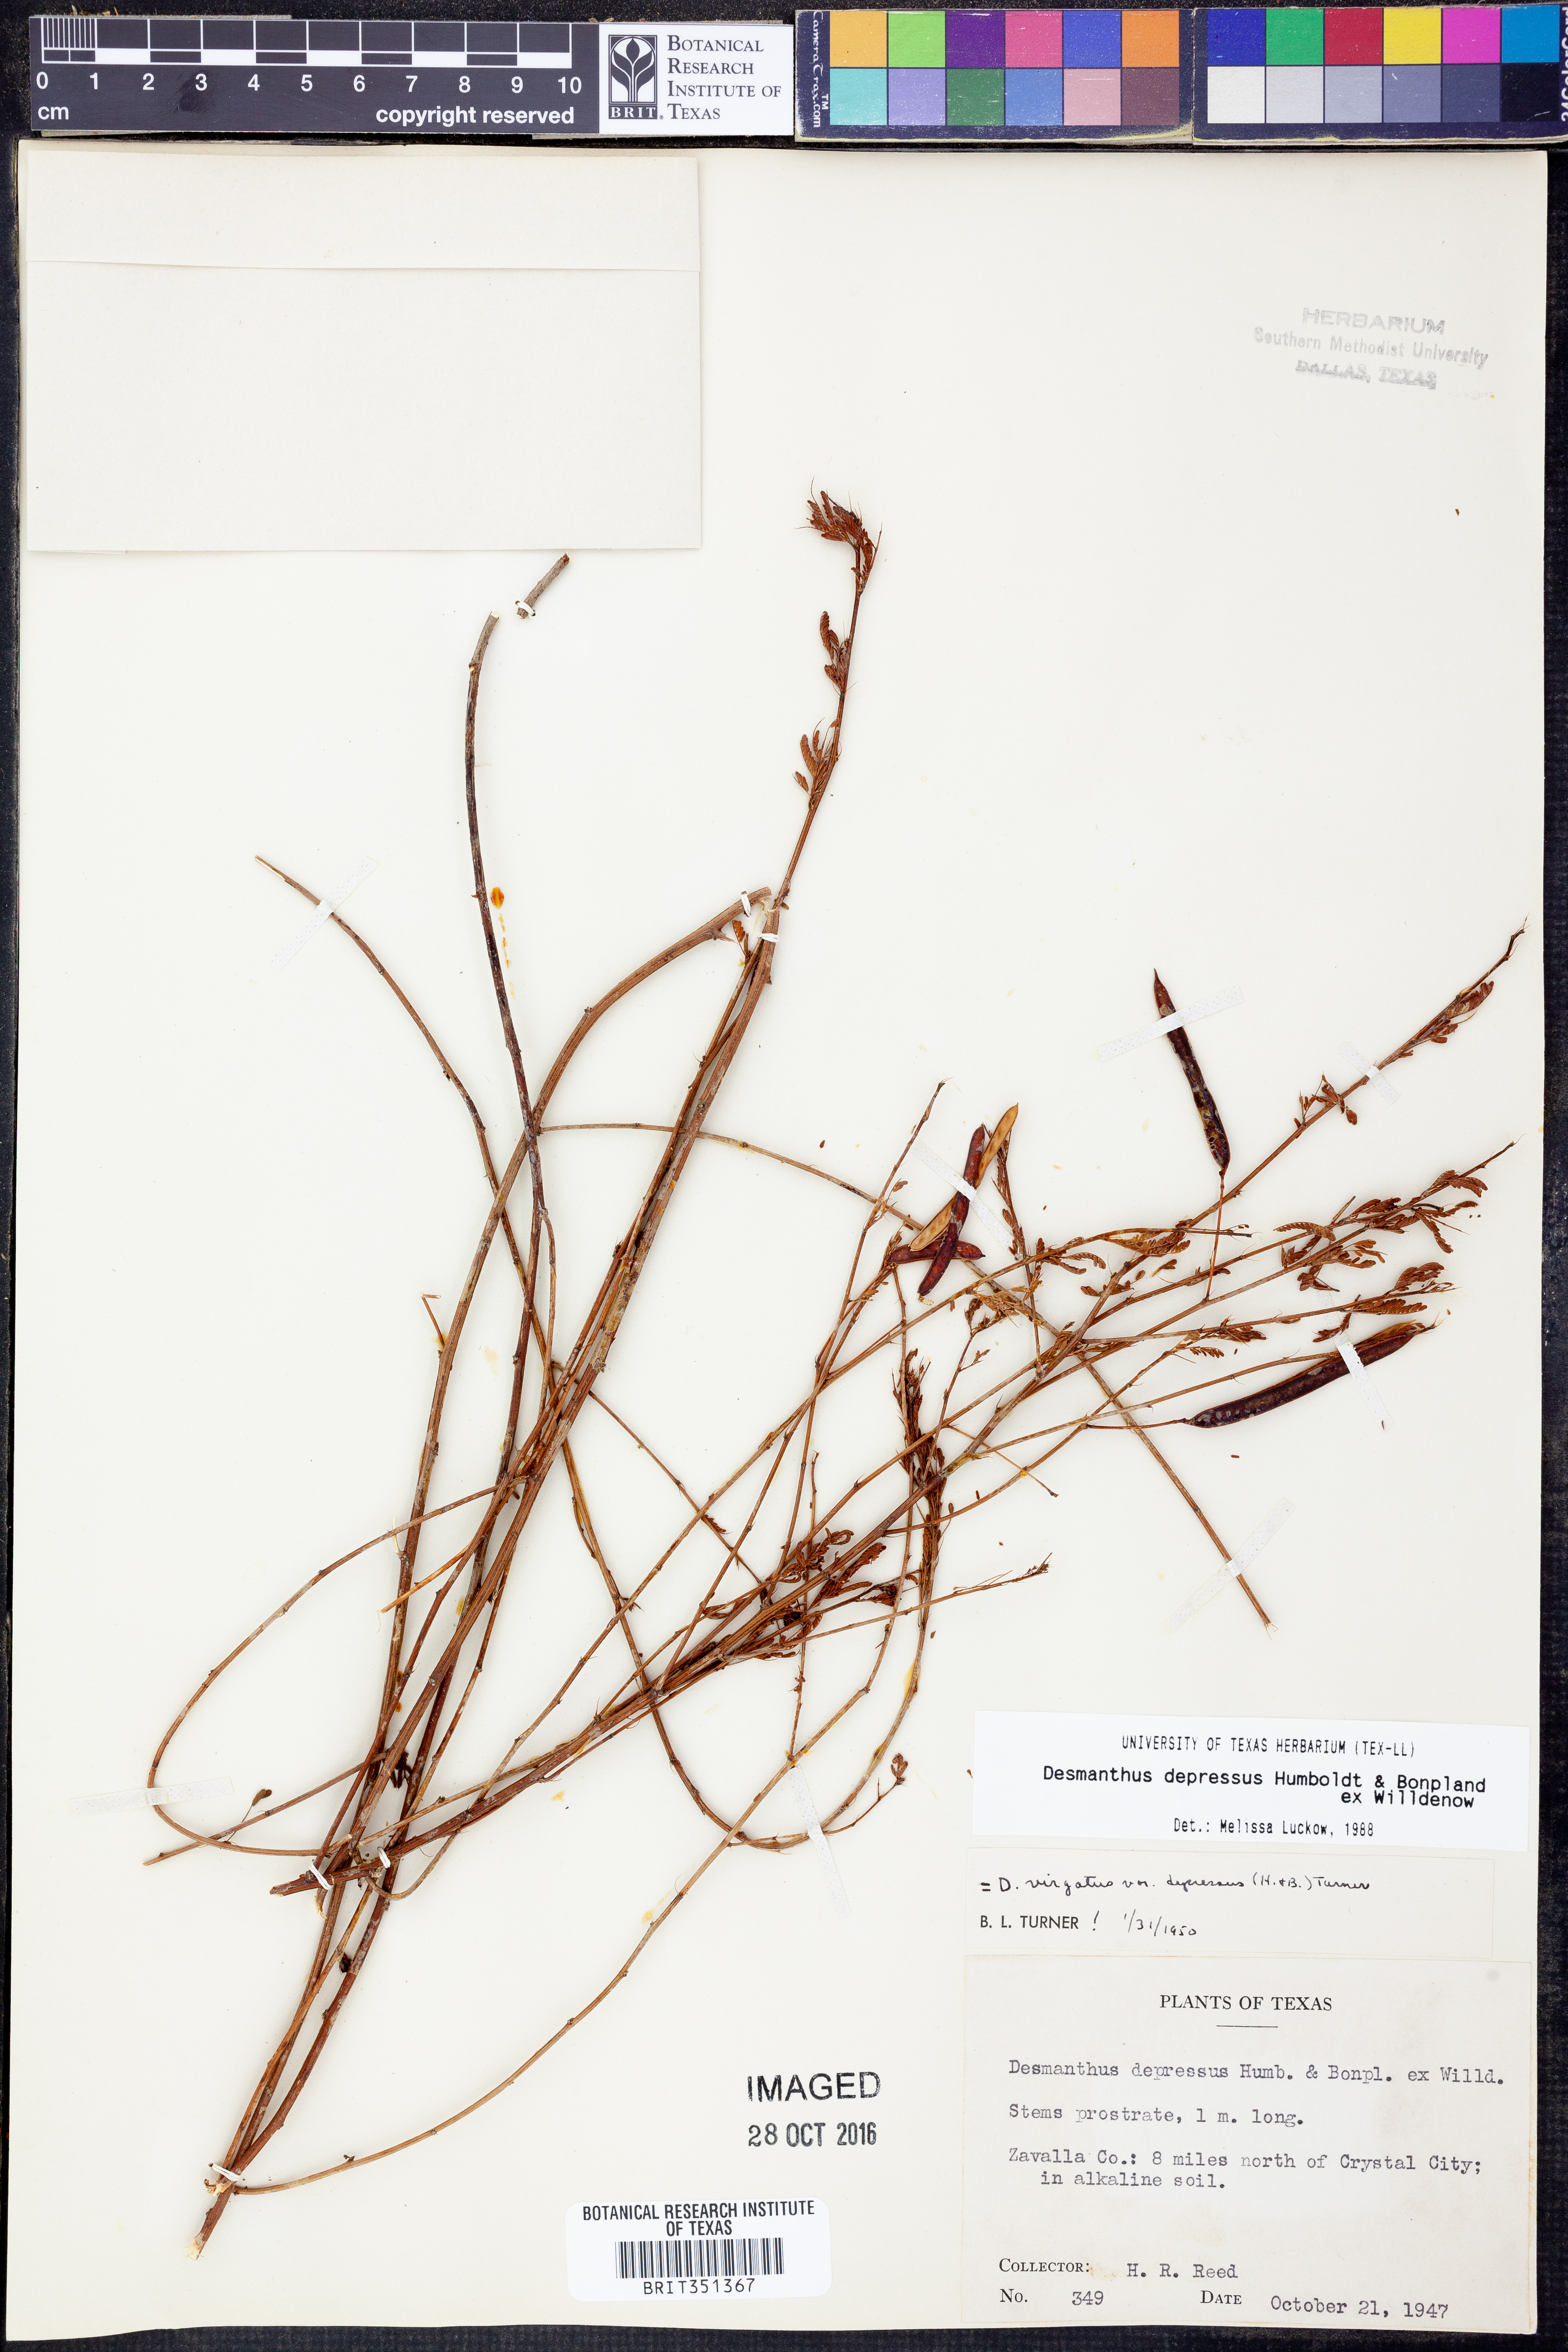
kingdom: Plantae
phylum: Tracheophyta
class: Magnoliopsida
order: Fabales
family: Fabaceae
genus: Desmanthus
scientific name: Desmanthus virgatus
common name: Wild tantan
